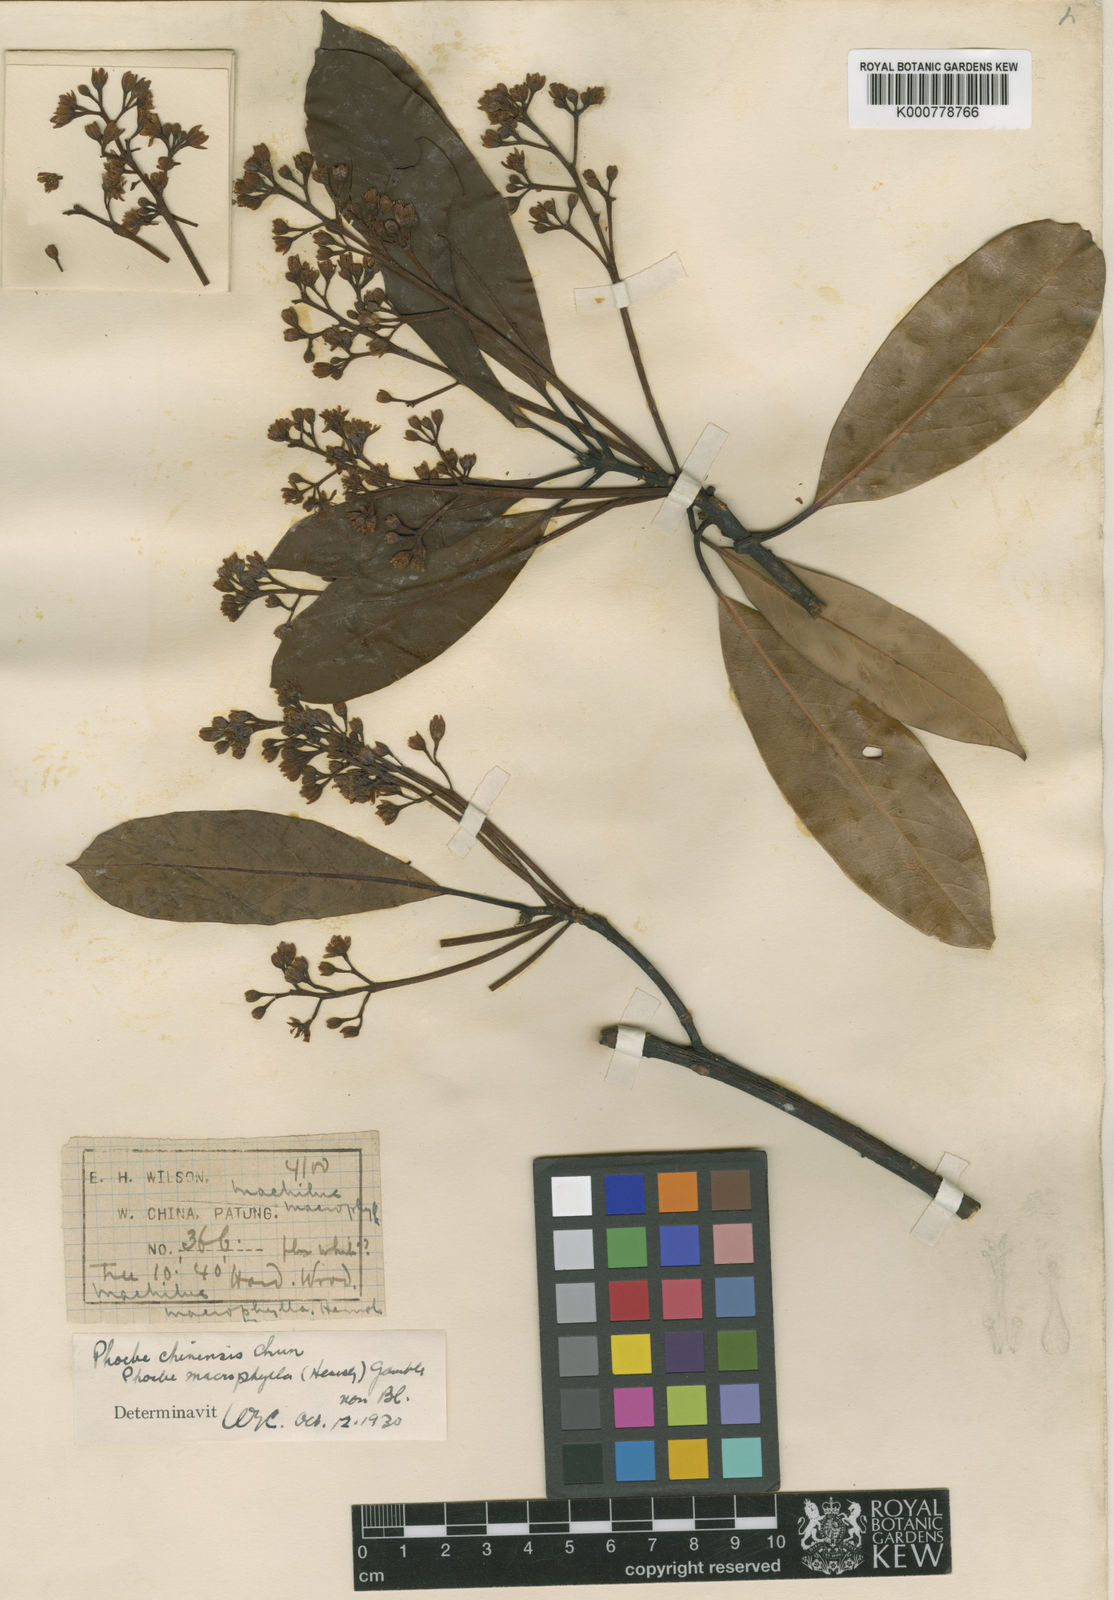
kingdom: Plantae
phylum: Tracheophyta
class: Magnoliopsida
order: Laurales
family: Lauraceae
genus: Machilus
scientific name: Machilus ichangensis
